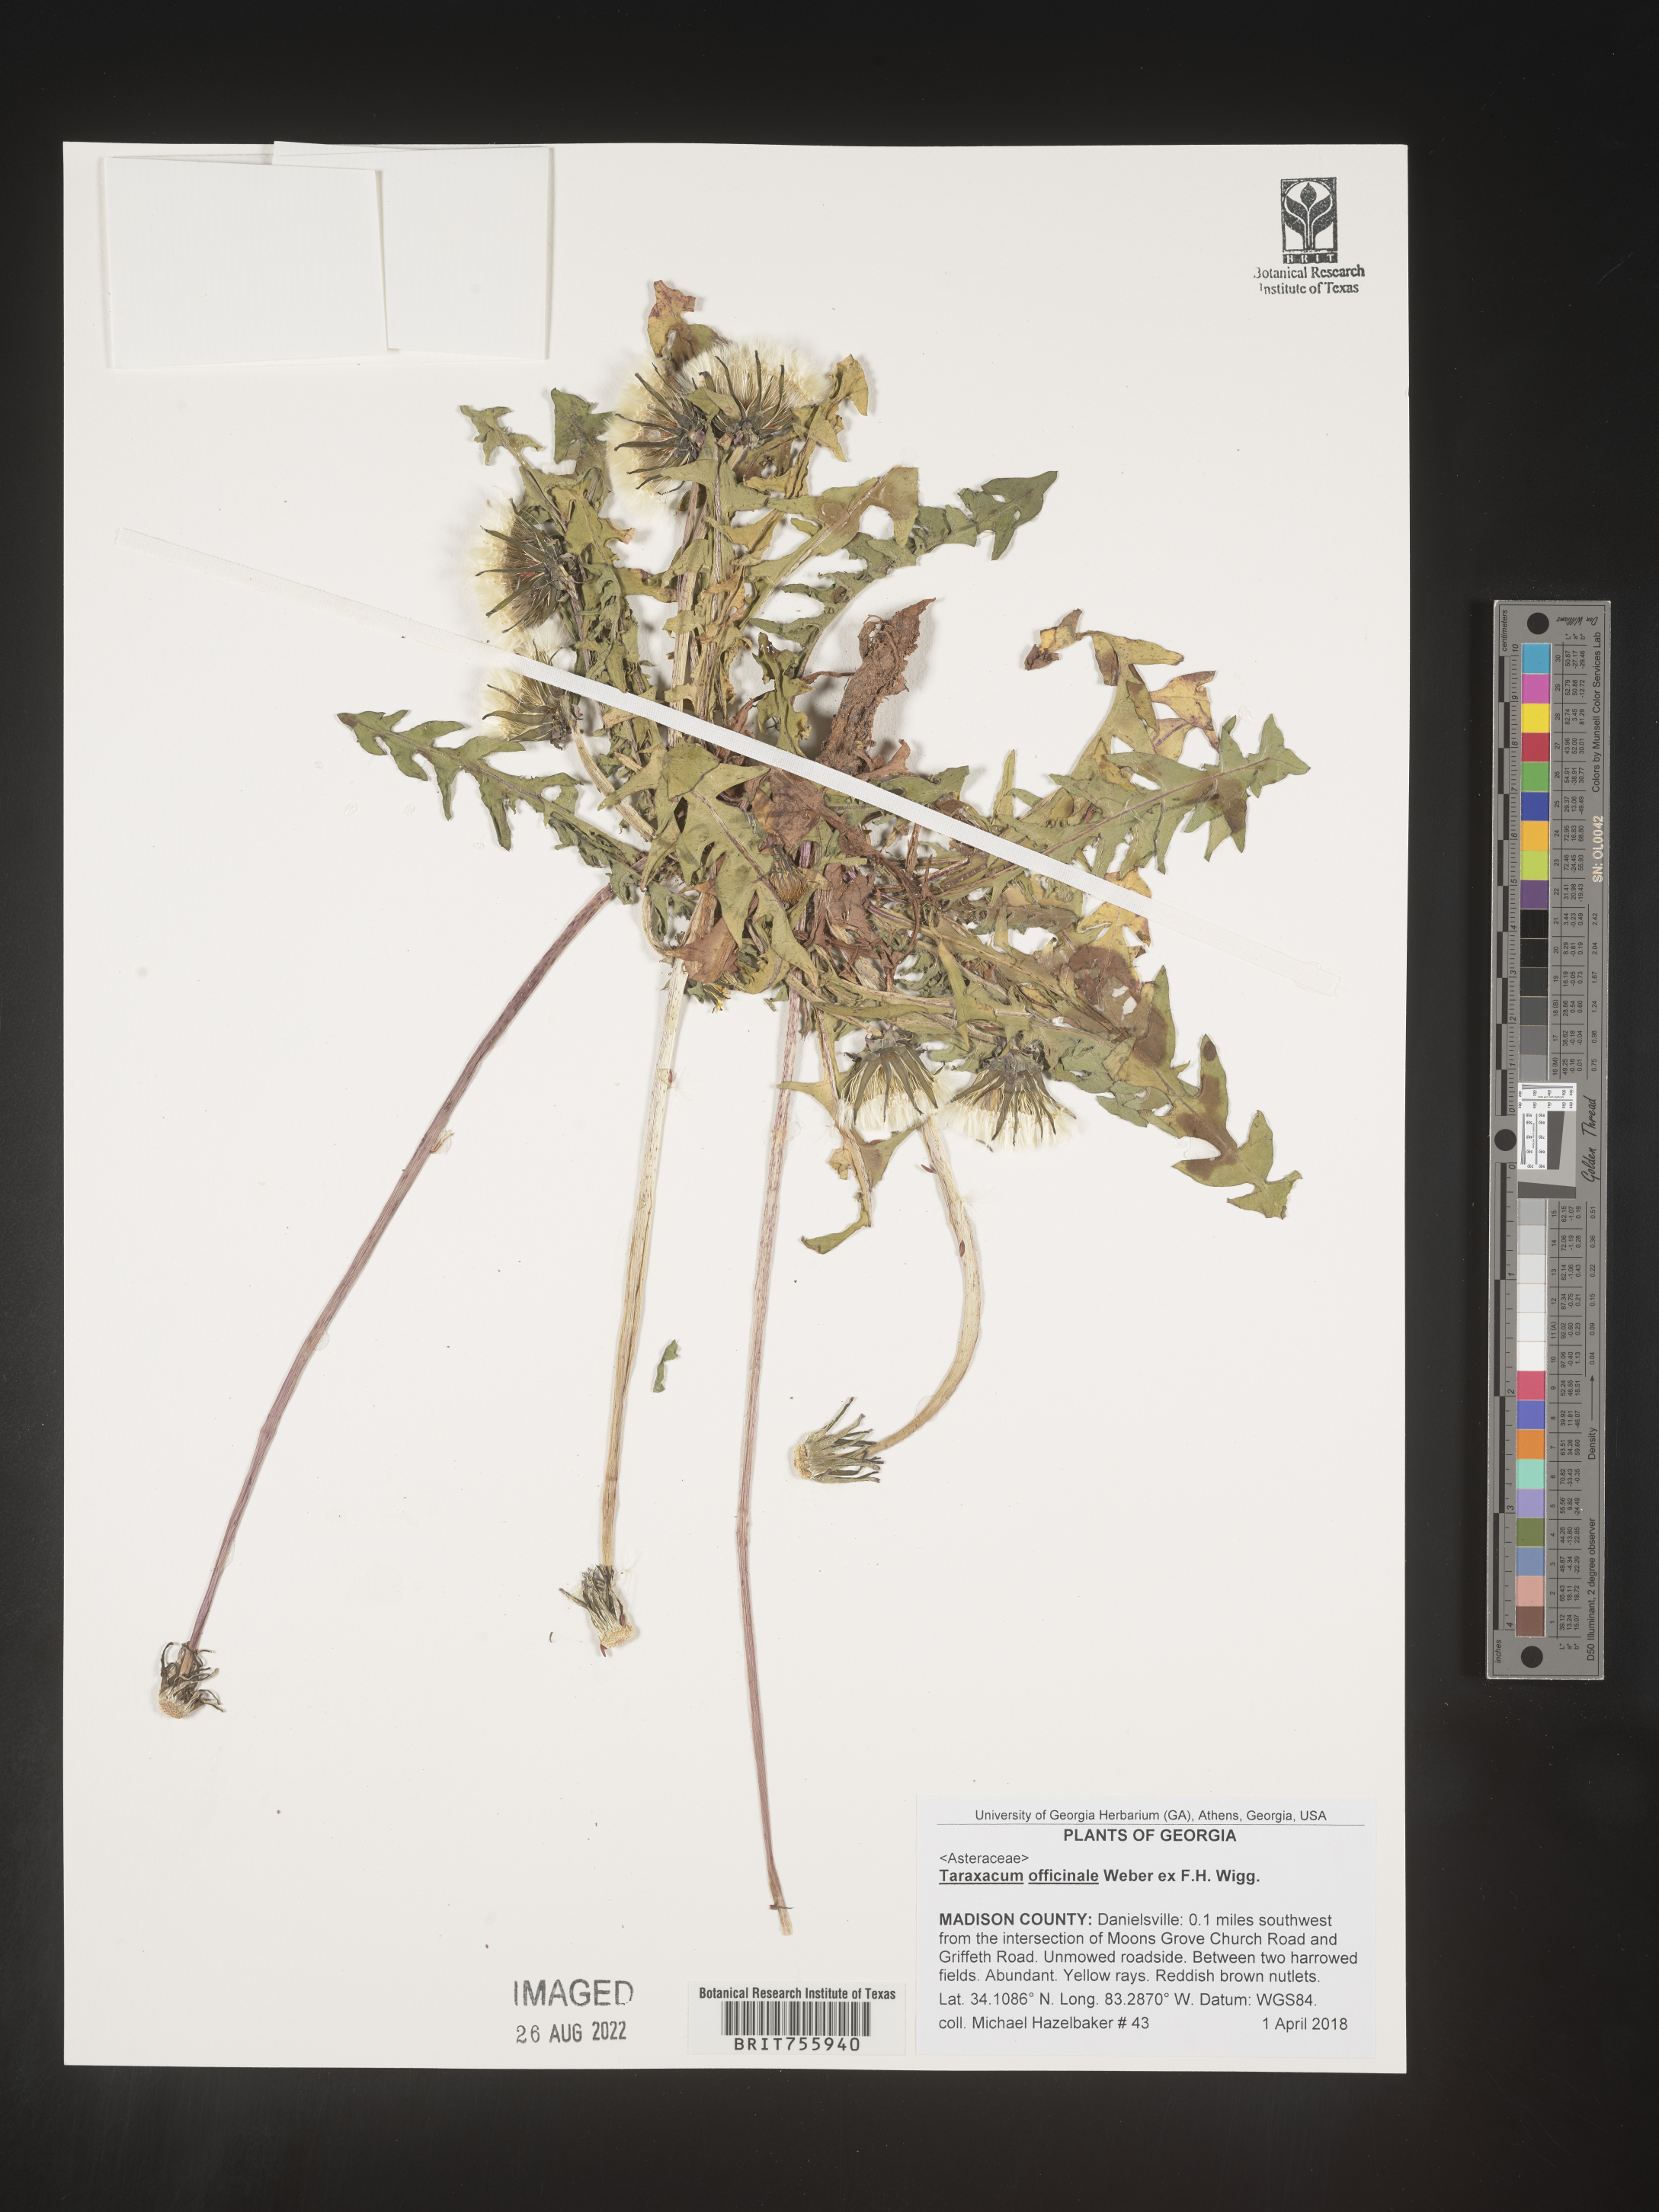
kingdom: Plantae
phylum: Tracheophyta
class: Magnoliopsida
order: Asterales
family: Asteraceae
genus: Taraxacum
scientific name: Taraxacum officinale
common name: Common dandelion
